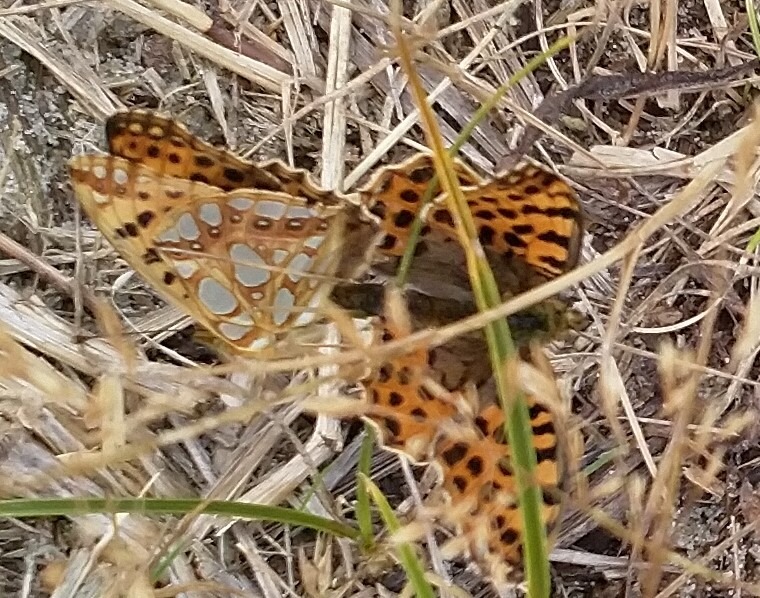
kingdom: Animalia
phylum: Arthropoda
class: Insecta
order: Lepidoptera
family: Nymphalidae
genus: Issoria
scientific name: Issoria lathonia
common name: Storplettet perlemorsommerfugl
